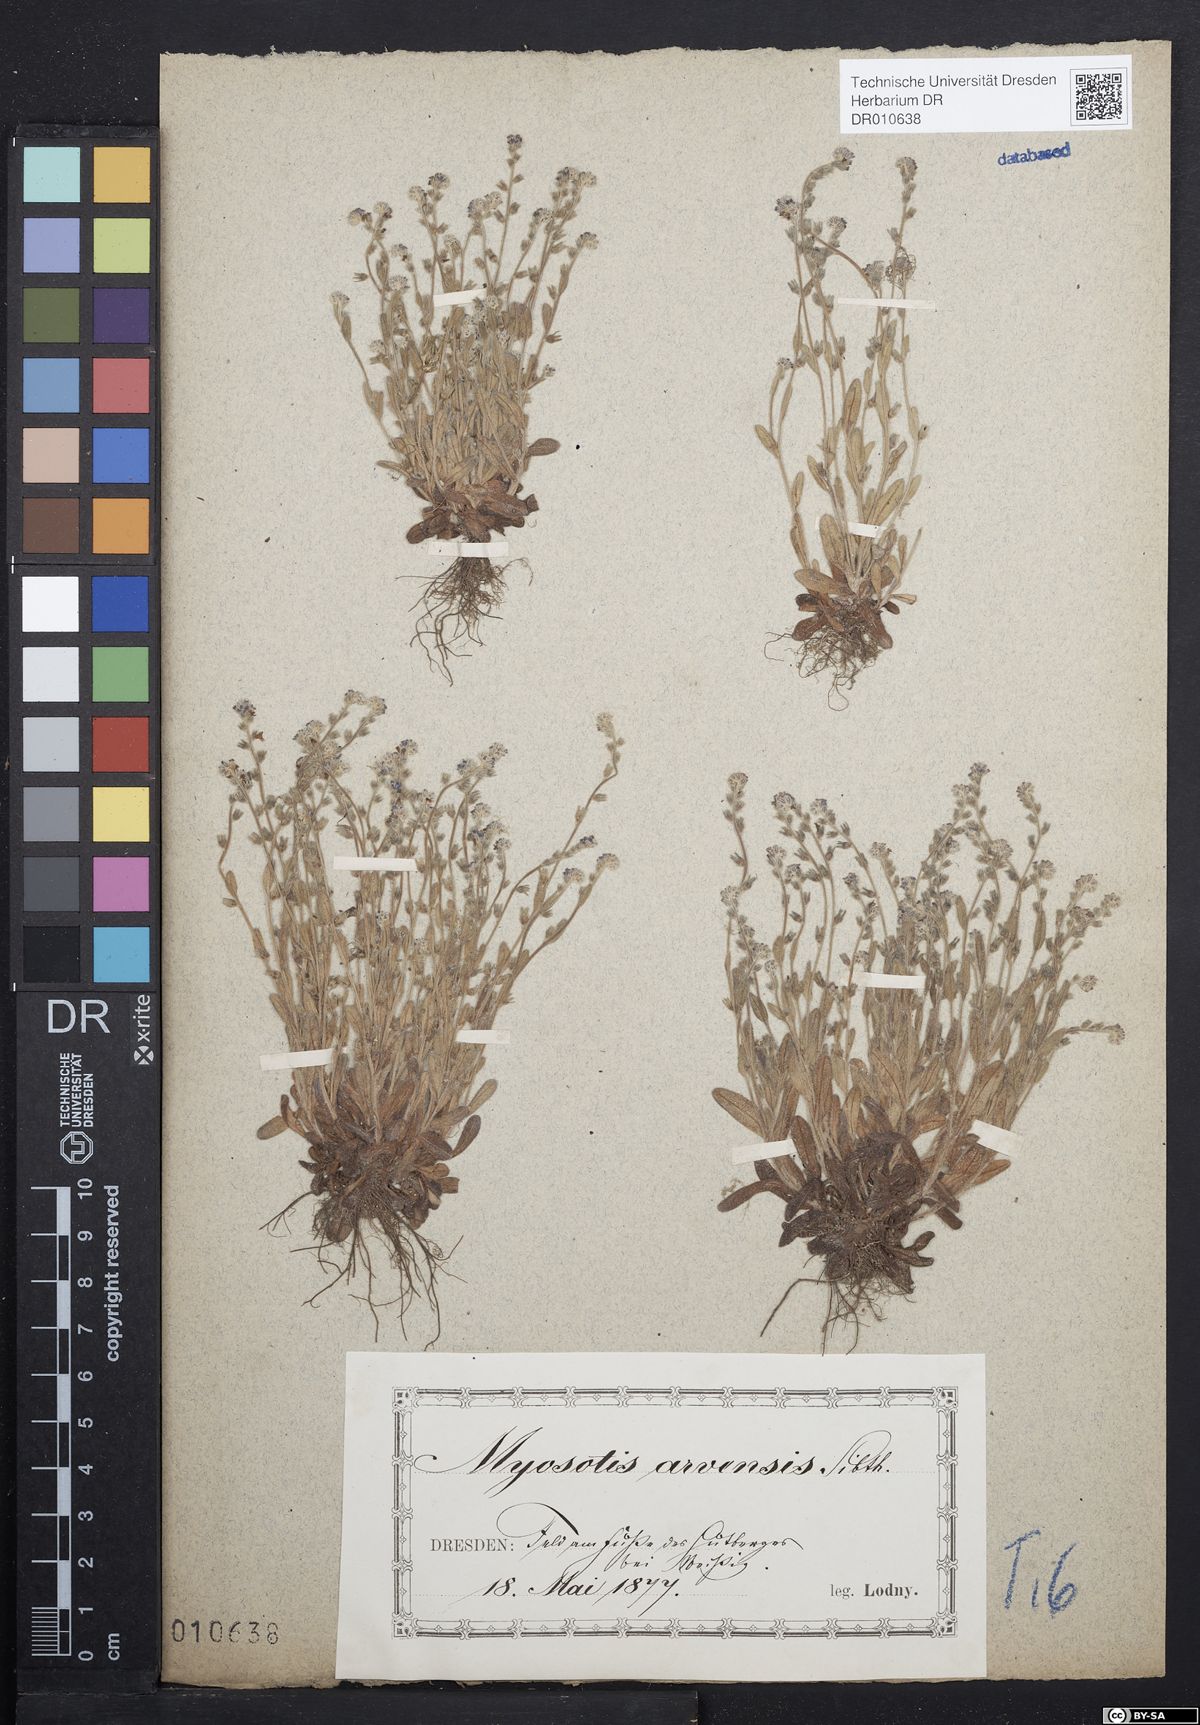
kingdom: Plantae
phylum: Tracheophyta
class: Magnoliopsida
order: Boraginales
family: Boraginaceae
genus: Myosotis
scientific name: Myosotis stricta
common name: Strict forget-me-not
